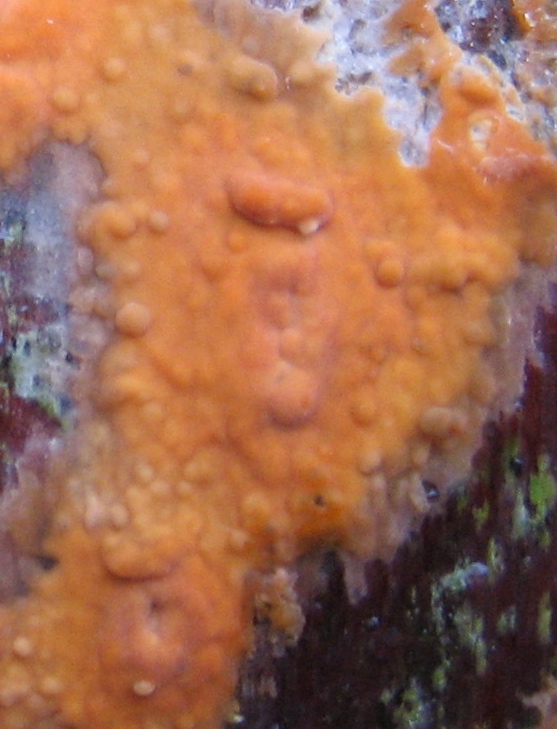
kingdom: Fungi
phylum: Basidiomycota
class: Agaricomycetes
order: Russulales
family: Peniophoraceae
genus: Peniophora
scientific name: Peniophora incarnata
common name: laksefarvet voksskind
